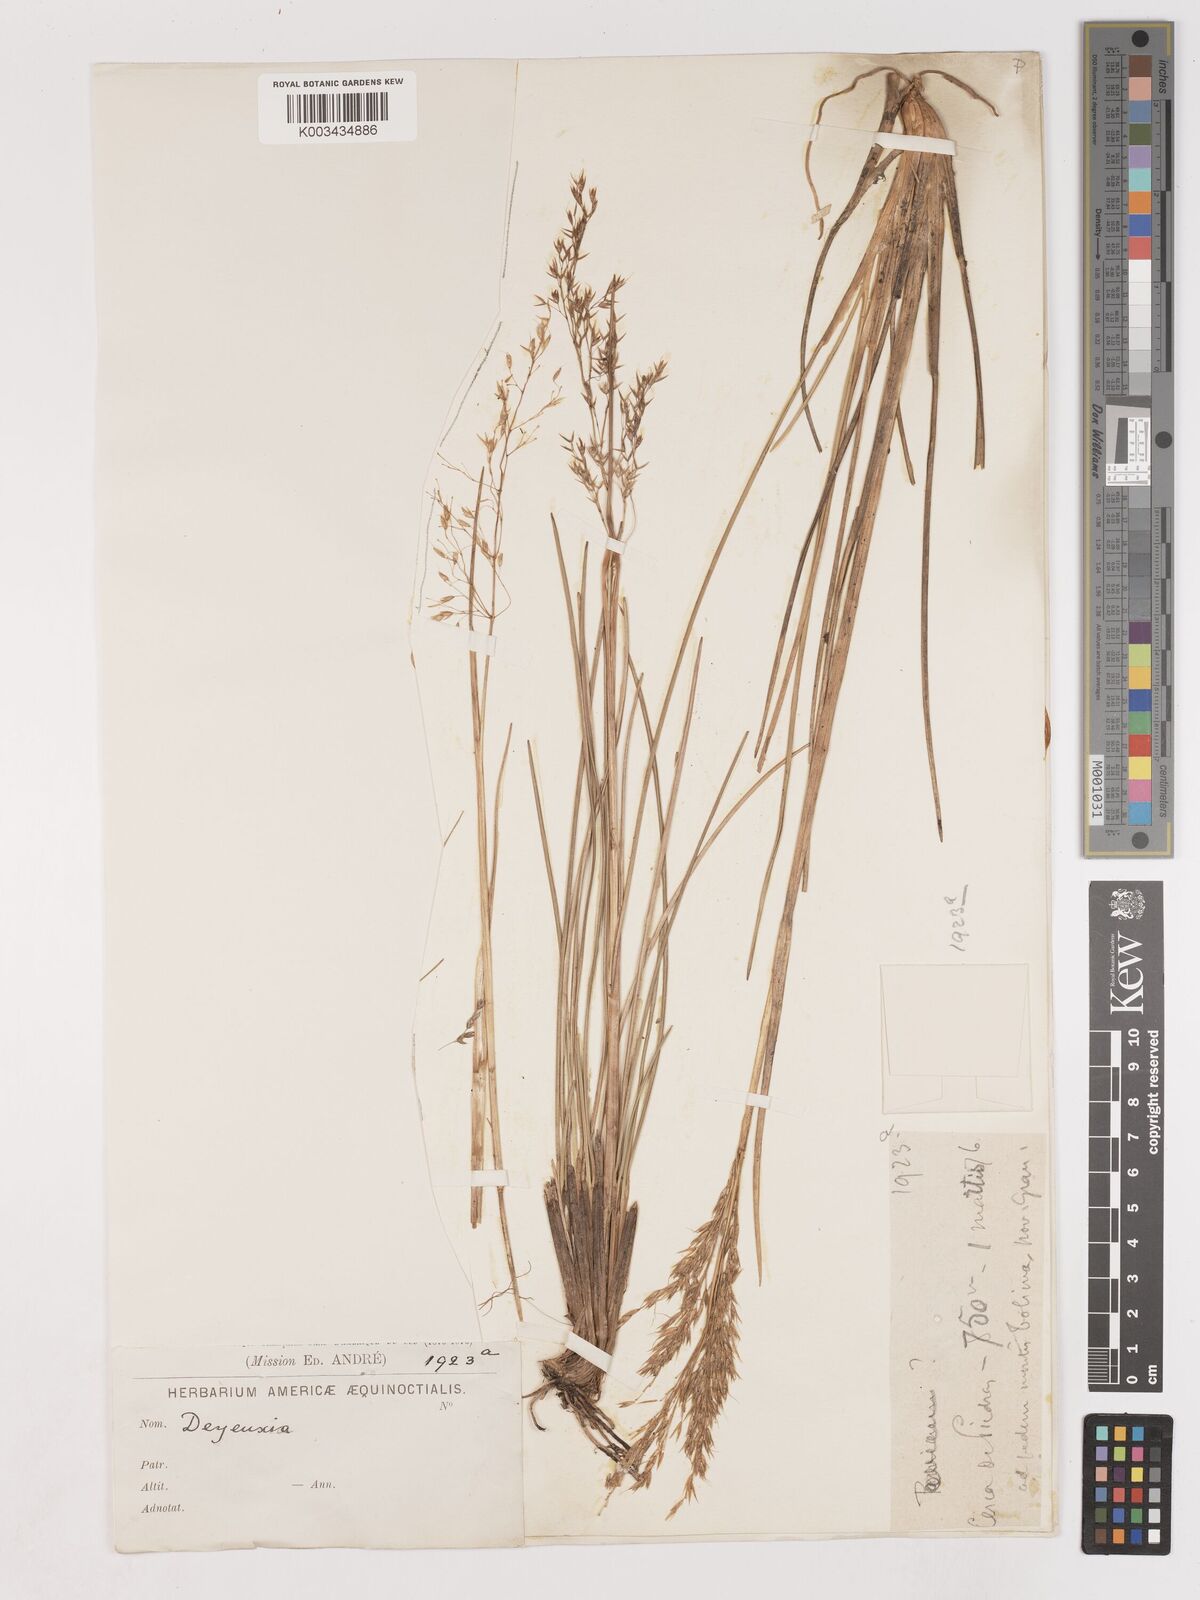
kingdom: Plantae
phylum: Tracheophyta
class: Liliopsida
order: Poales
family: Poaceae
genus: Calamagrostis
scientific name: Calamagrostis spruceana
